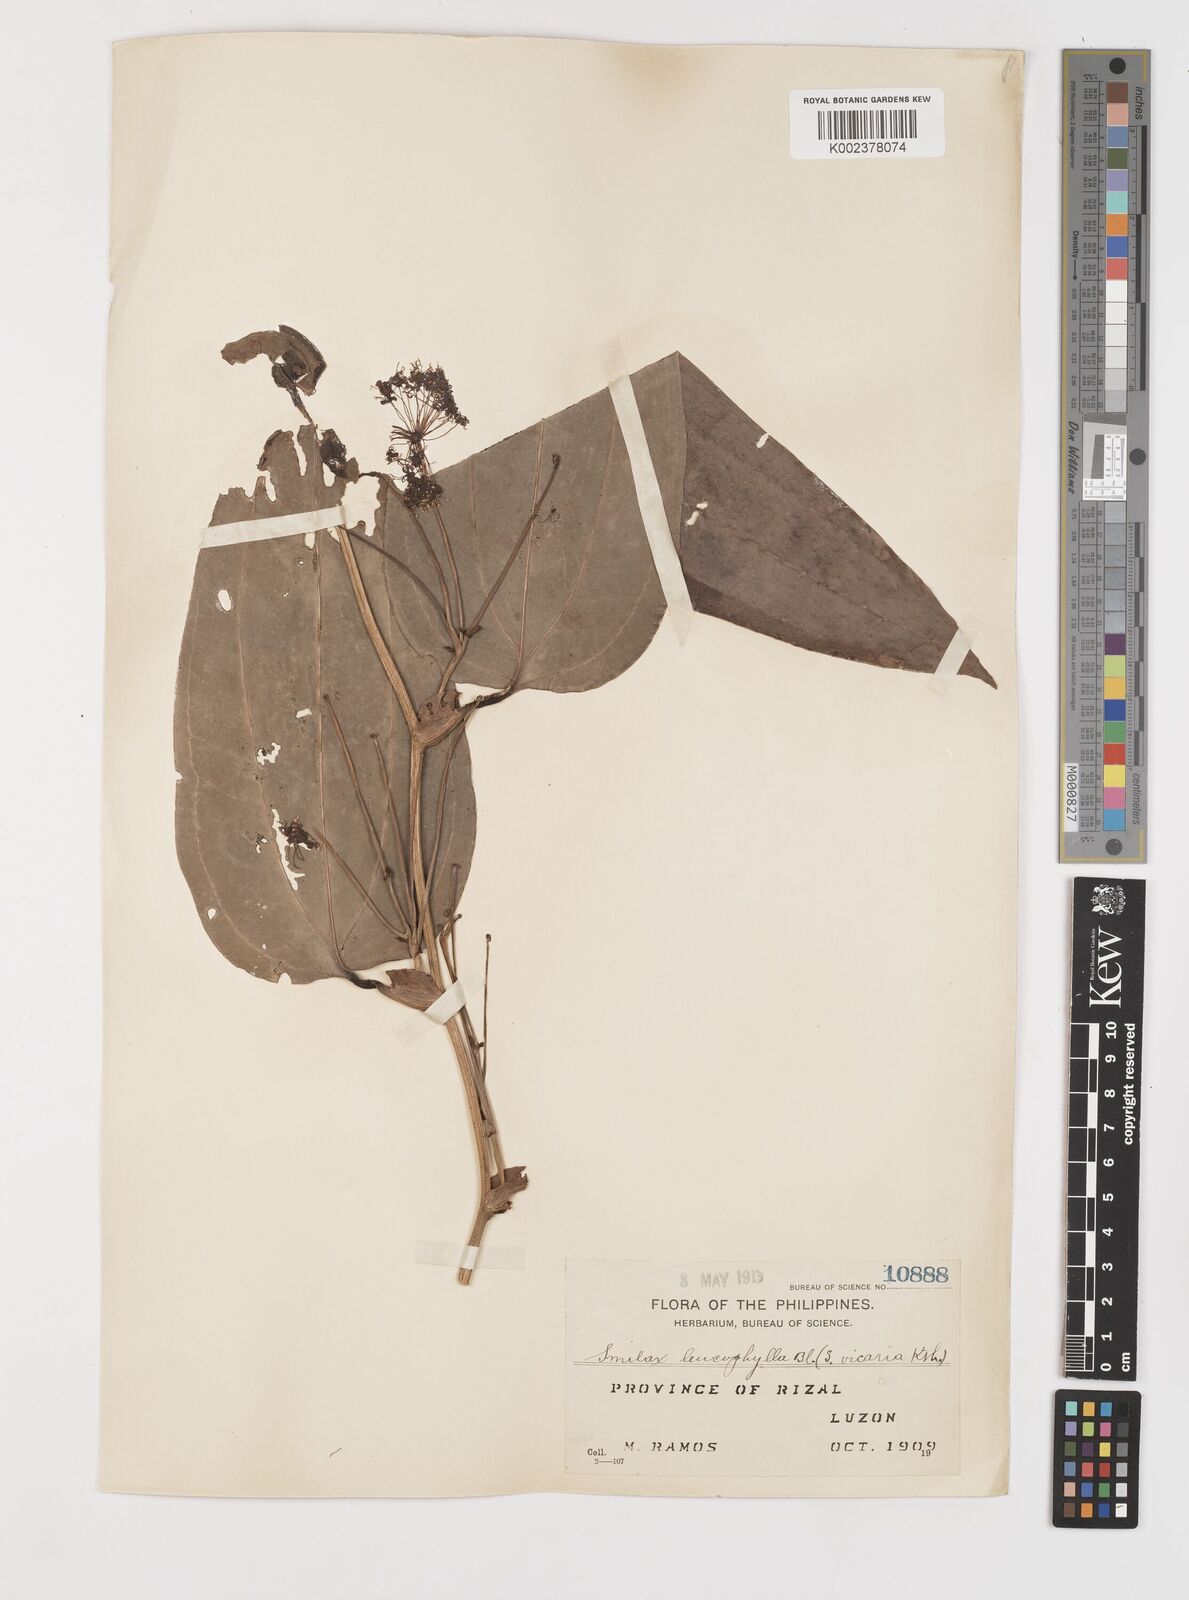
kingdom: Plantae
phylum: Tracheophyta
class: Liliopsida
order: Liliales
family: Smilacaceae
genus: Smilax
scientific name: Smilax leucophylla
